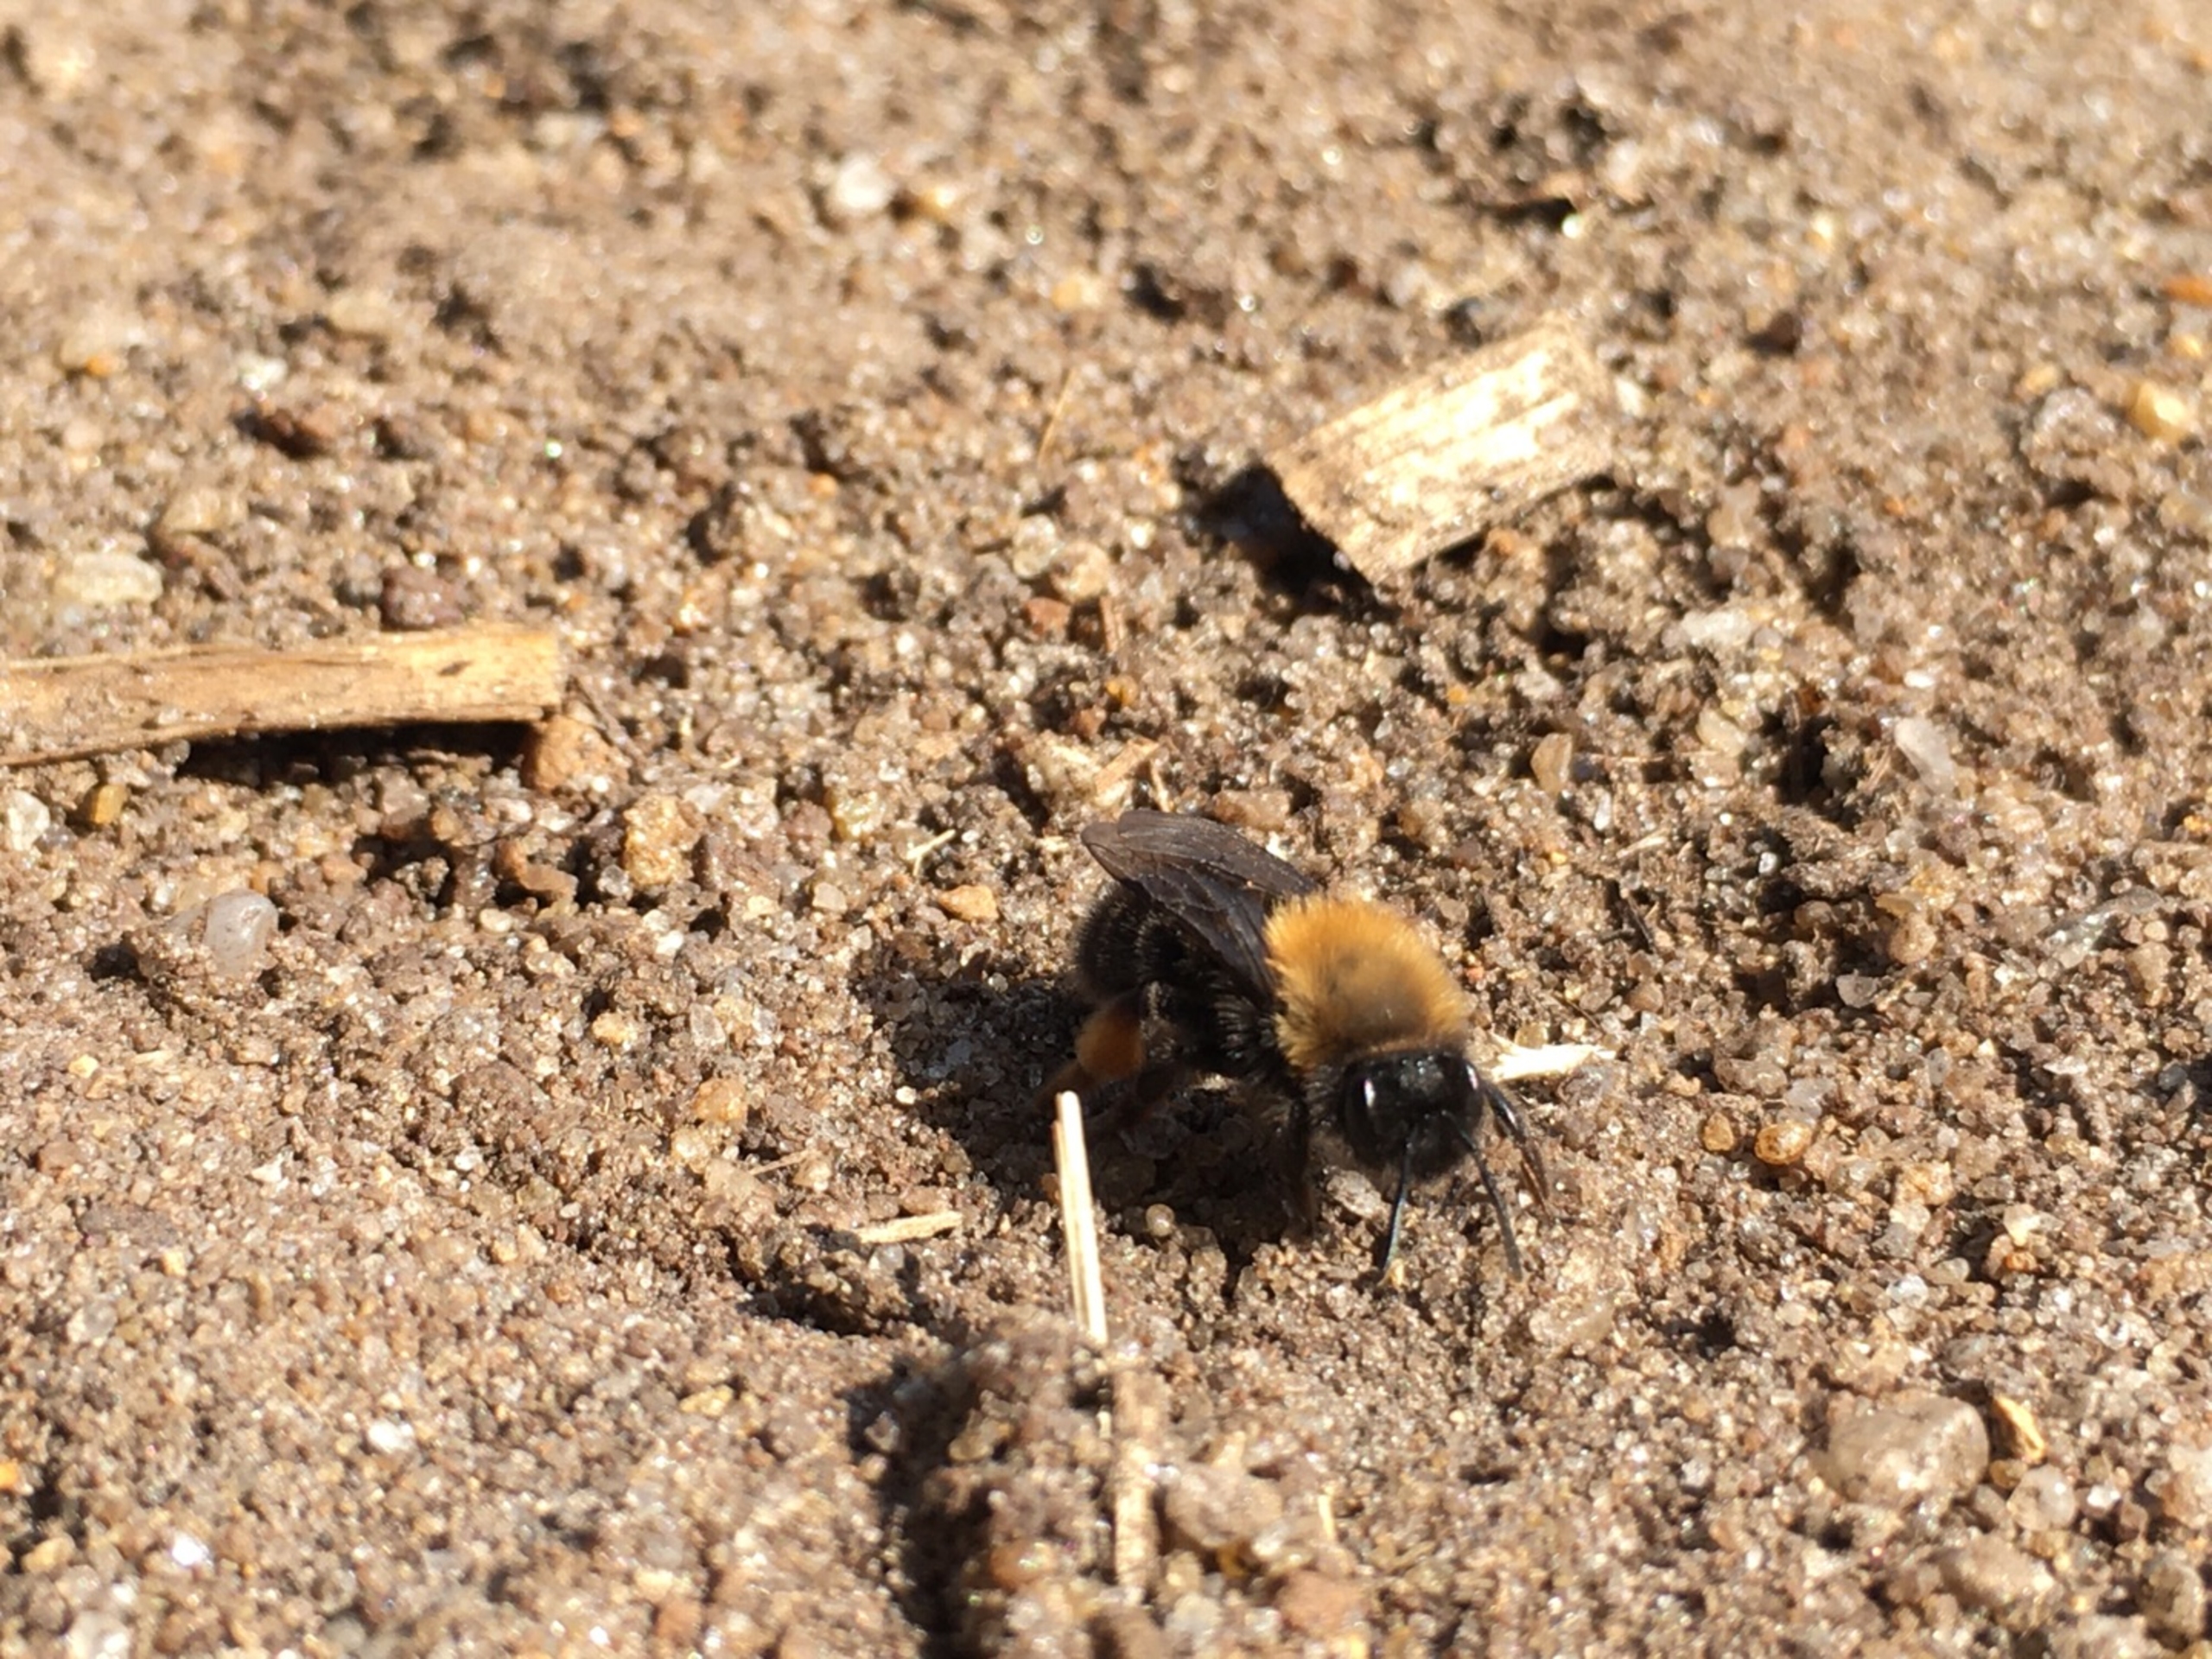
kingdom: Animalia
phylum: Arthropoda
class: Insecta
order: Hymenoptera
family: Andrenidae
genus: Andrena
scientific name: Andrena clarkella
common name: Rødbrystet jordbi
